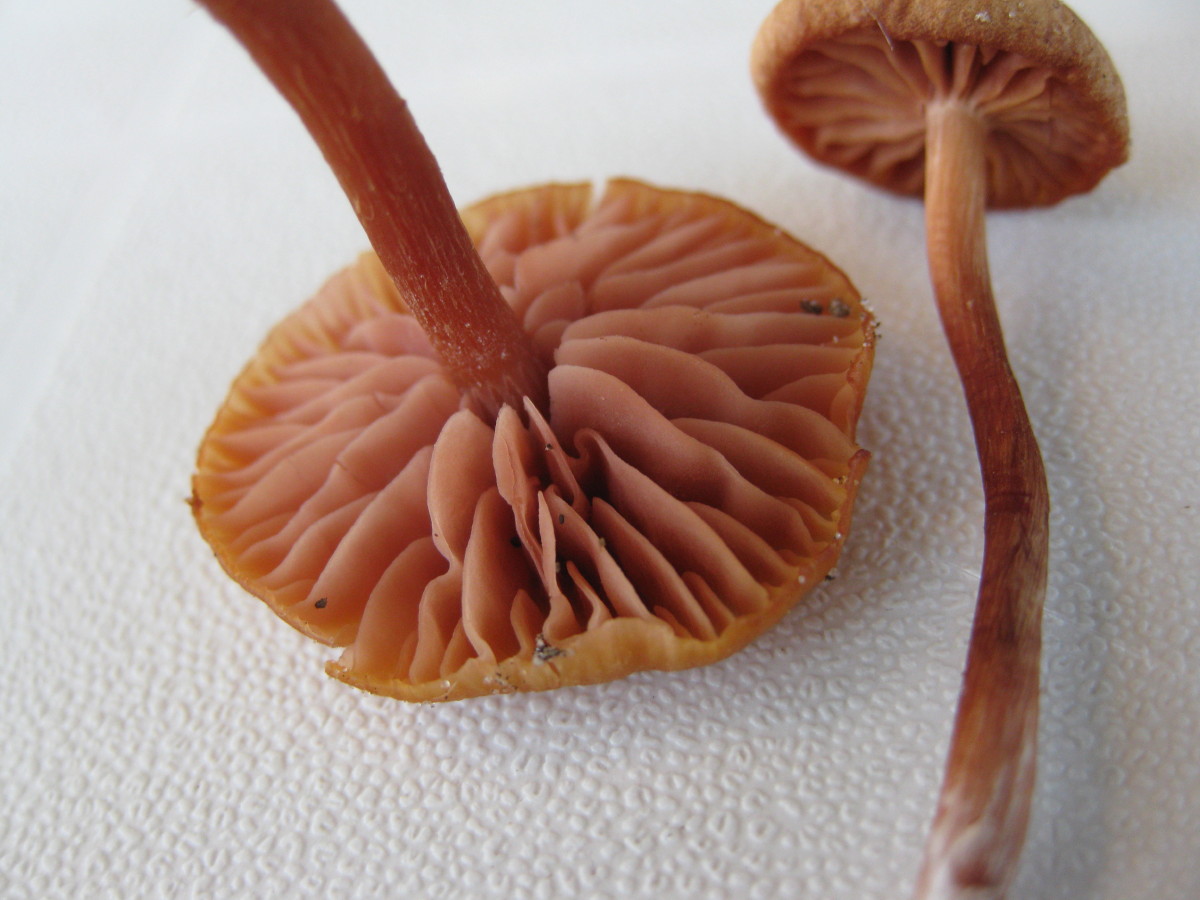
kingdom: Fungi
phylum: Basidiomycota
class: Agaricomycetes
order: Agaricales
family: Hydnangiaceae
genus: Laccaria
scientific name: Laccaria laccata
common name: rød ametysthat
